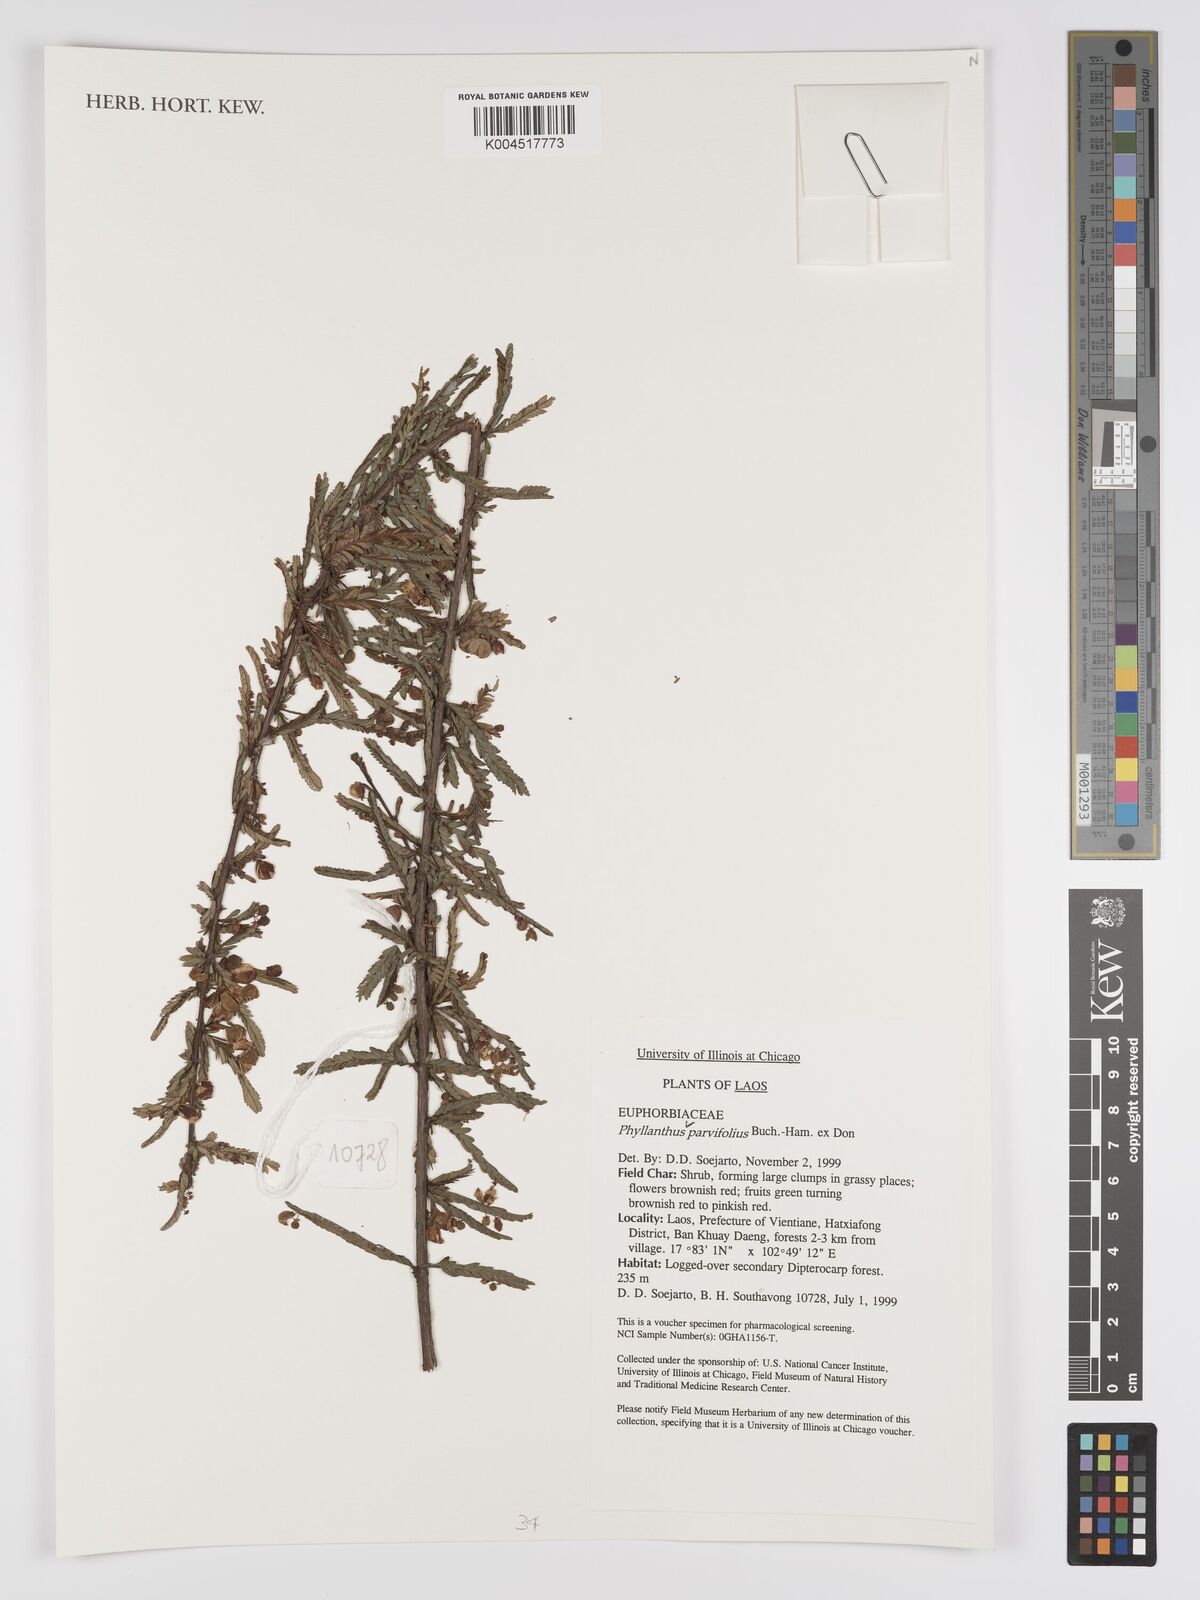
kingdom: Plantae
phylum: Tracheophyta
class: Magnoliopsida
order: Malpighiales
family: Phyllanthaceae
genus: Phyllanthus
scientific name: Phyllanthus
